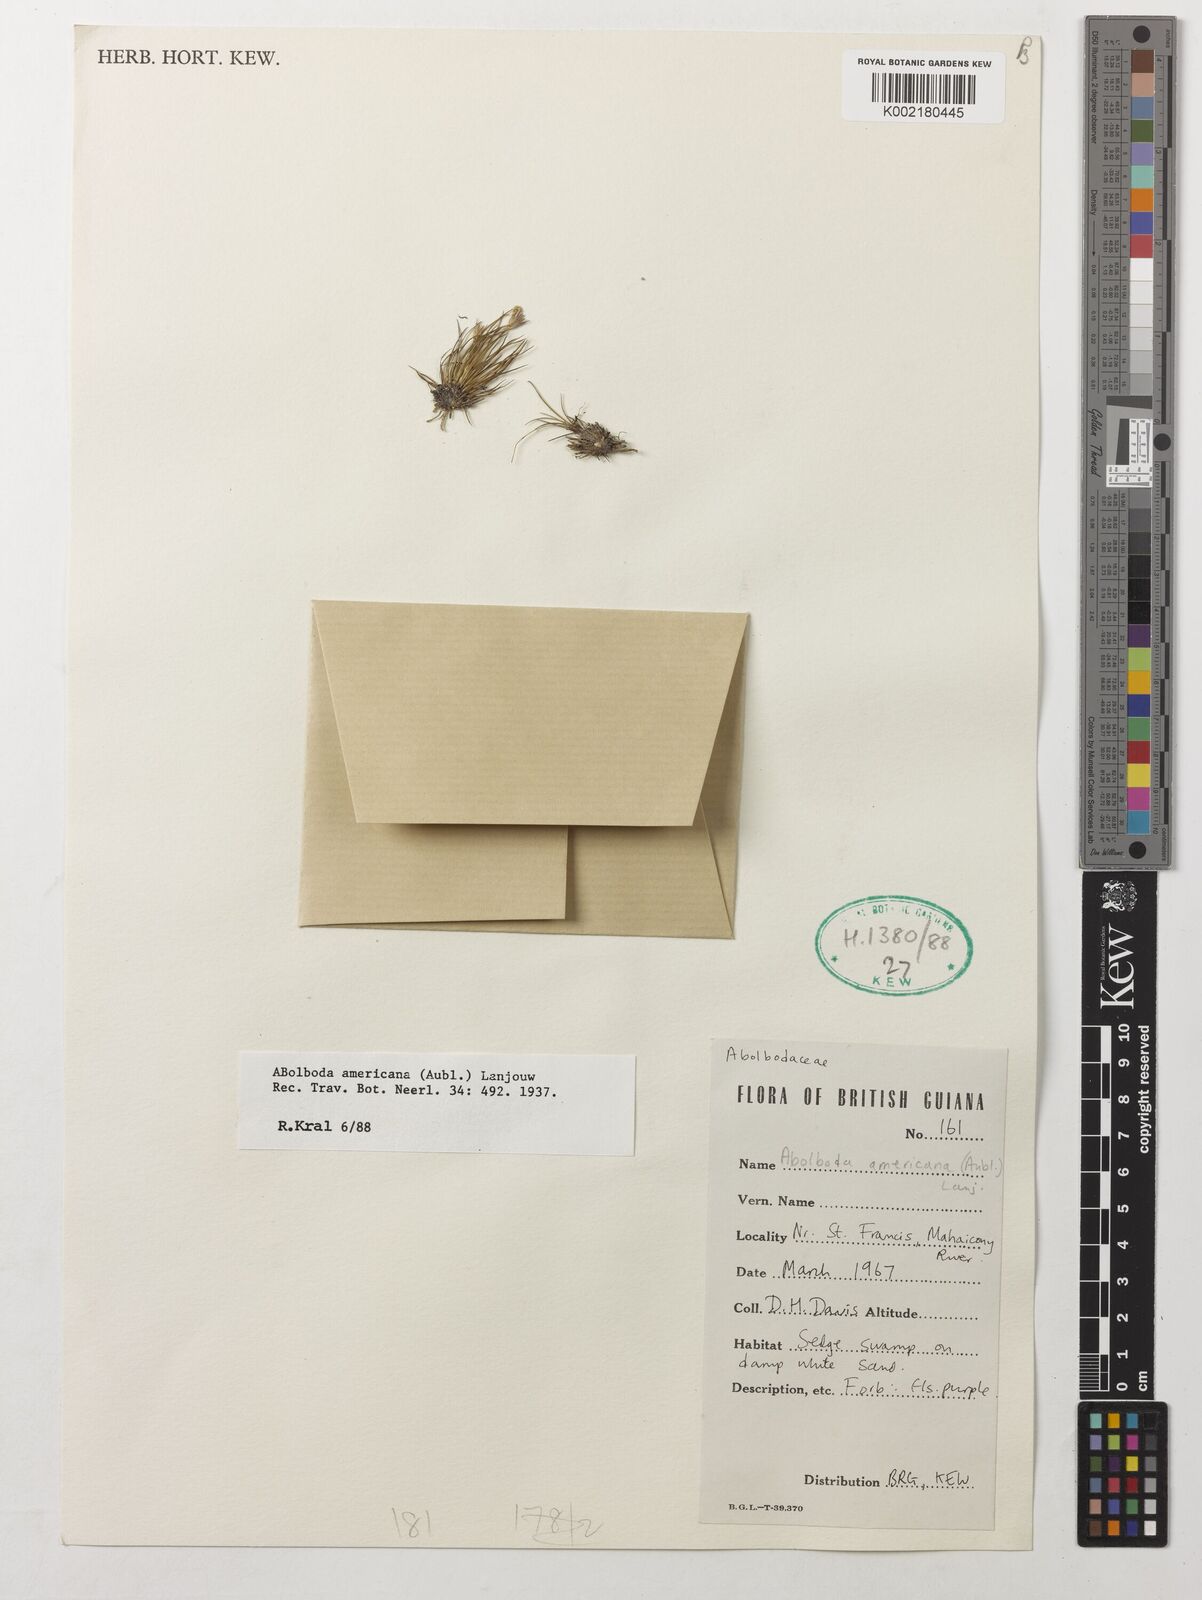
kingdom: Plantae
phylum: Tracheophyta
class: Liliopsida
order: Poales
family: Xyridaceae
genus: Abolboda
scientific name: Abolboda americana
